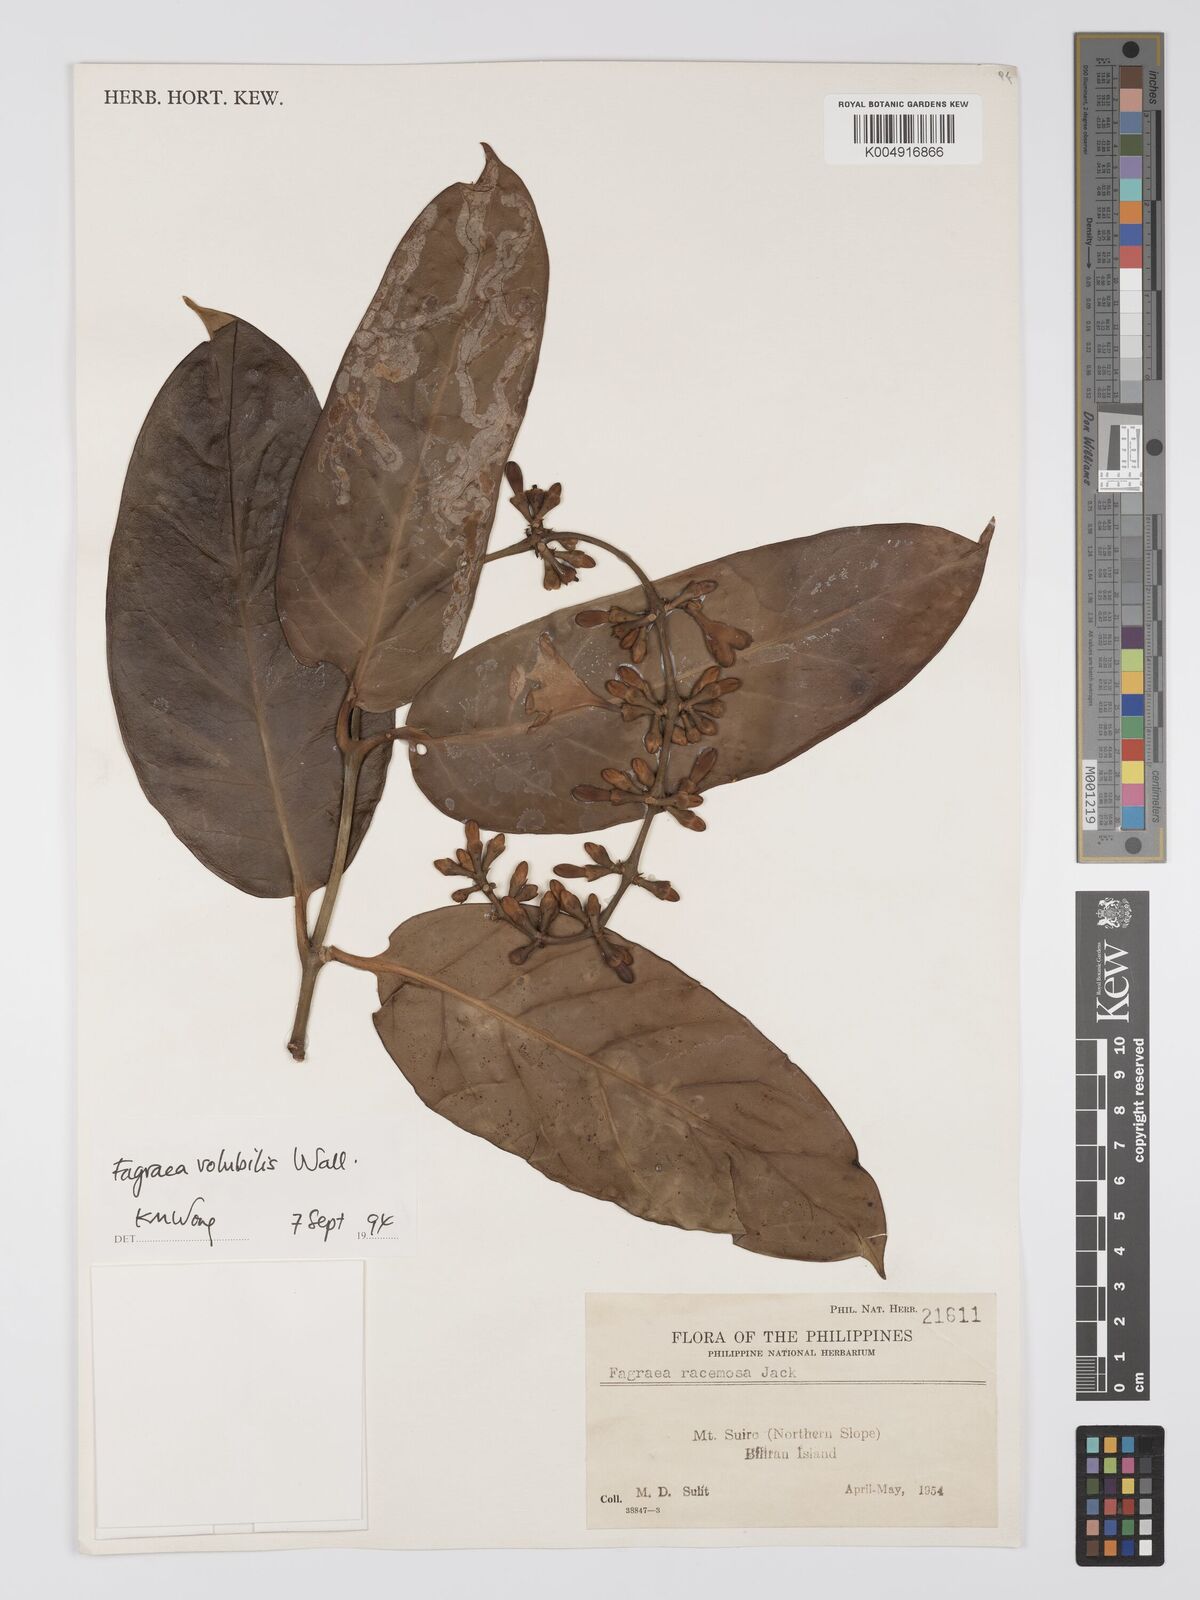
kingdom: Plantae
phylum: Tracheophyta
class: Magnoliopsida
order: Gentianales
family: Gentianaceae
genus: Utania
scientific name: Utania racemosa
